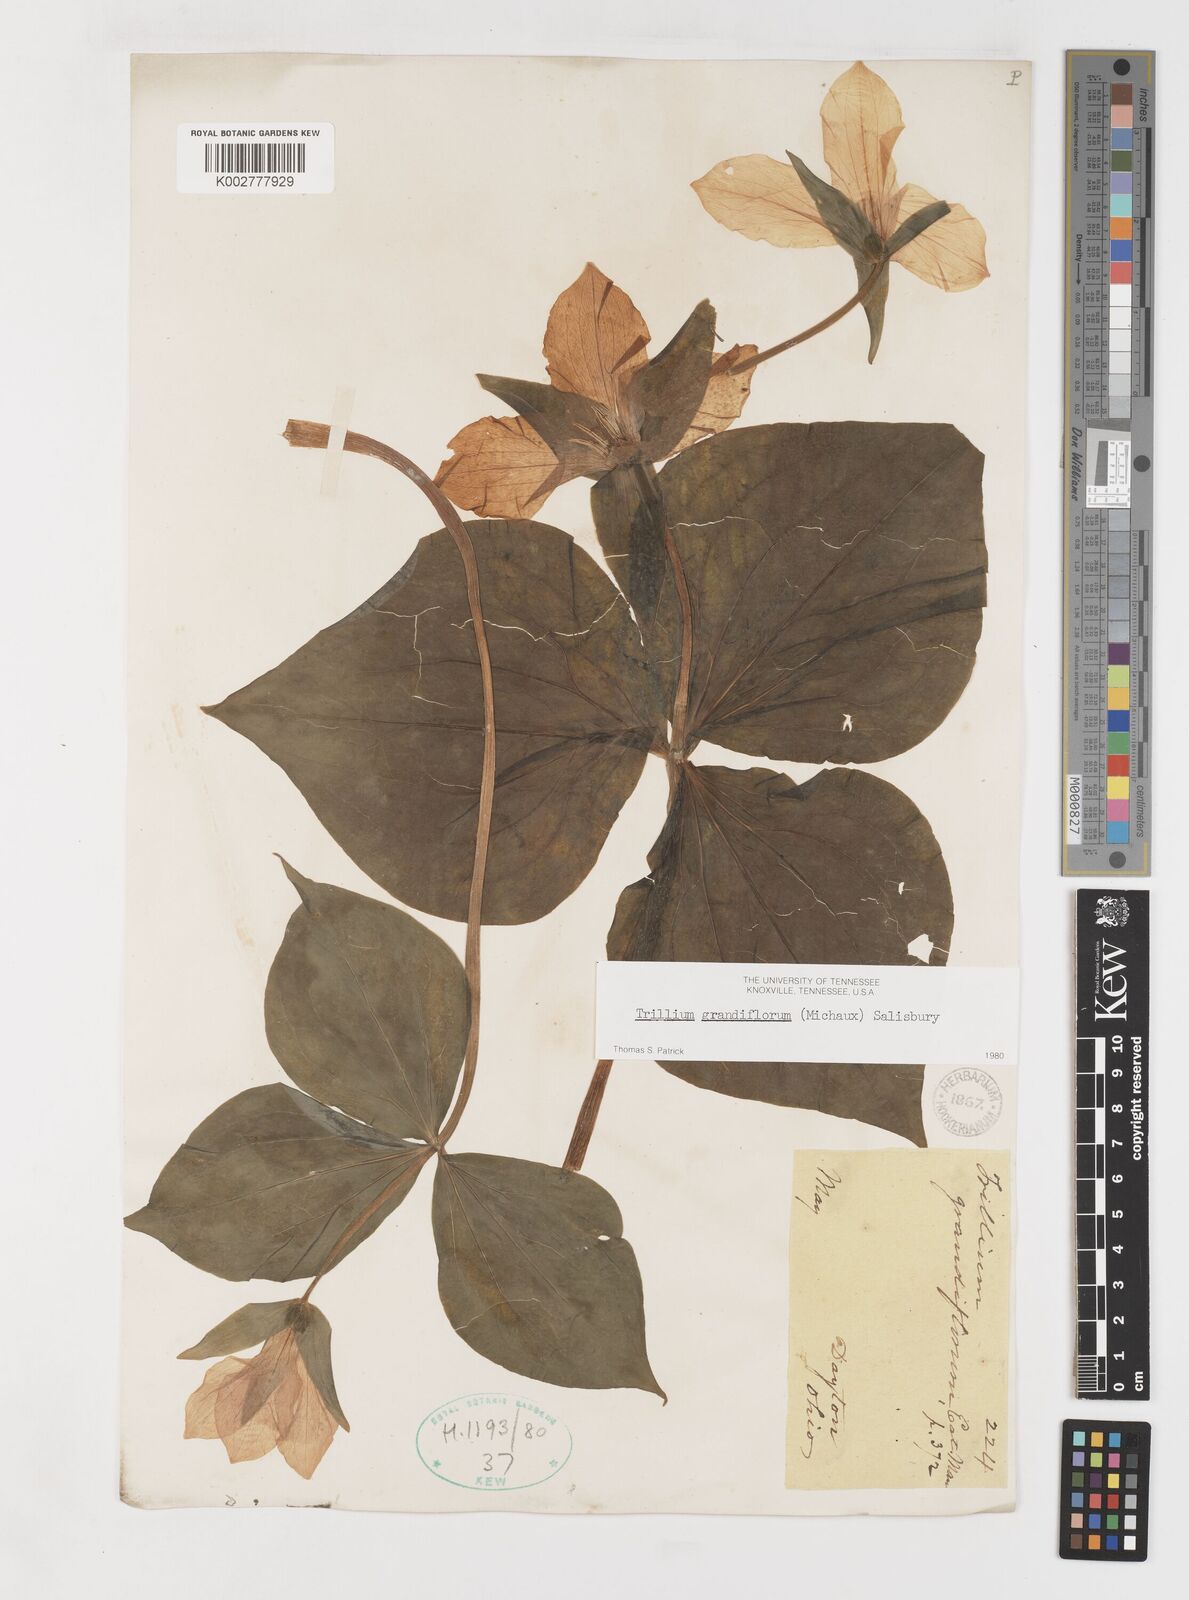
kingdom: Plantae
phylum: Tracheophyta
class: Liliopsida
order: Liliales
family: Melanthiaceae
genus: Trillium
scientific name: Trillium grandiflorum
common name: Great white trillium
